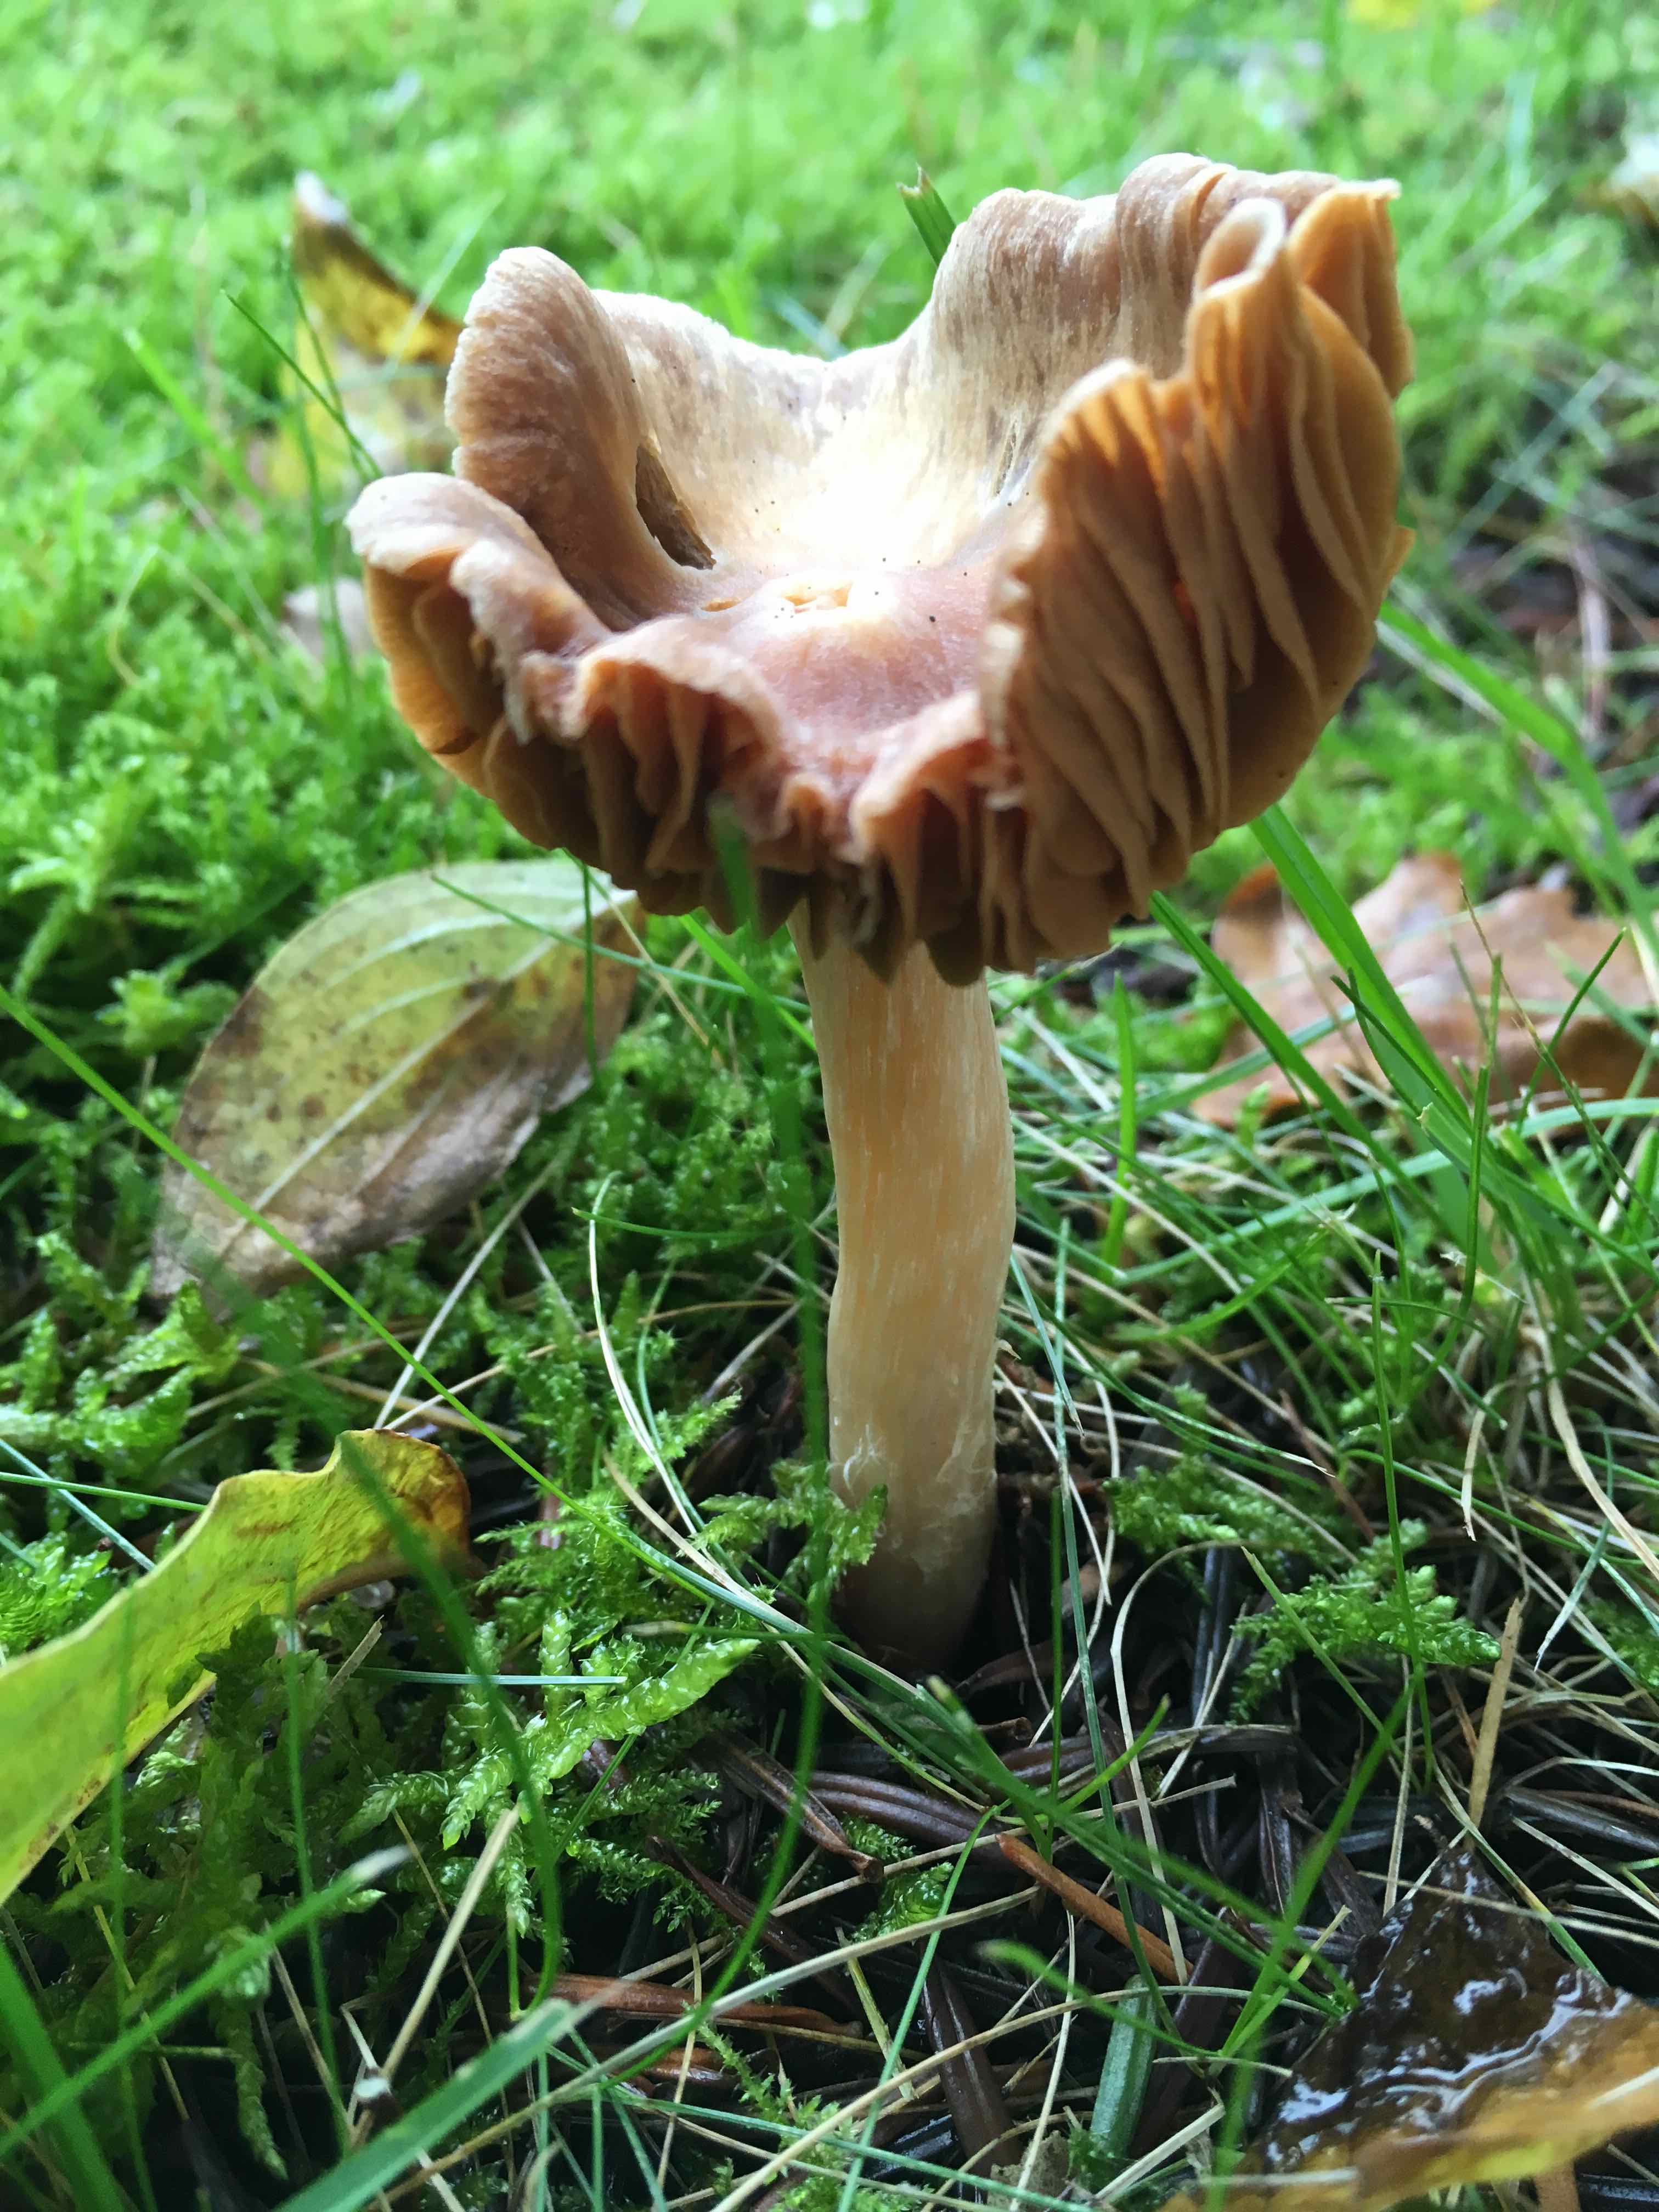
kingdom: Fungi
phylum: Basidiomycota
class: Agaricomycetes
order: Agaricales
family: Cortinariaceae
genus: Cortinarius
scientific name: Cortinarius
